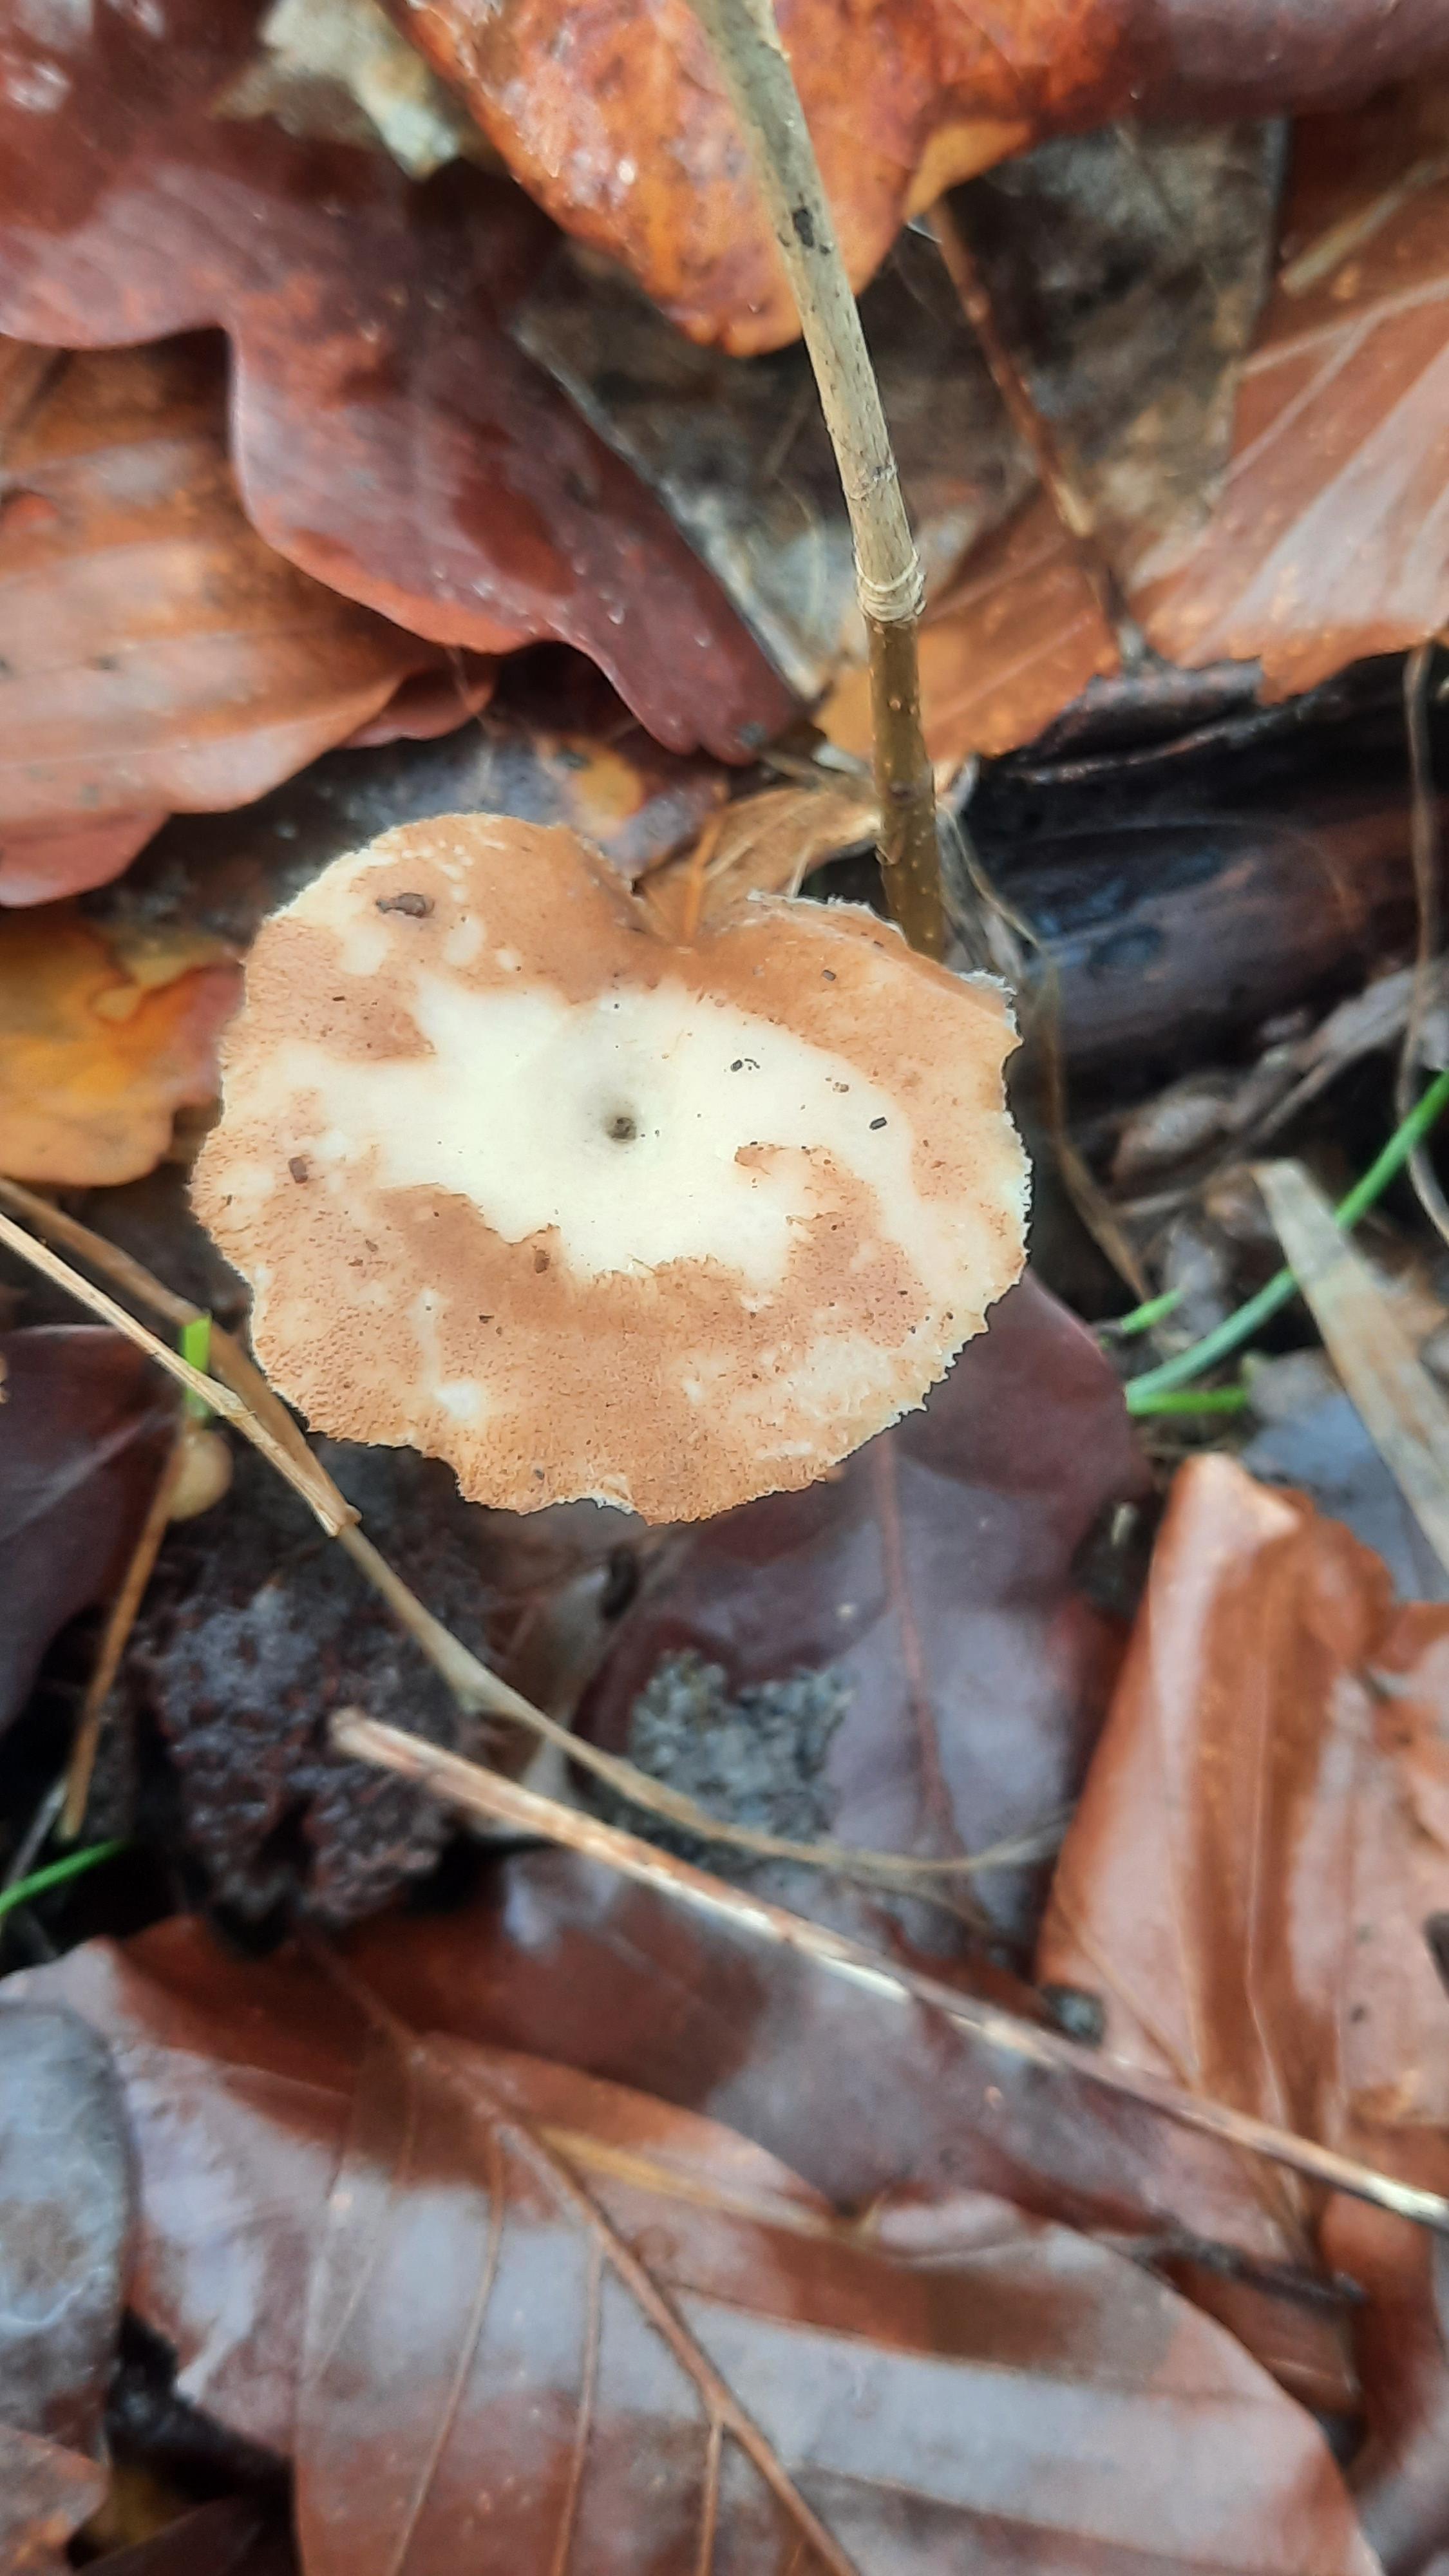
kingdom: Fungi
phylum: Basidiomycota
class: Agaricomycetes
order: Polyporales
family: Polyporaceae
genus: Lentinus
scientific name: Lentinus brumalis
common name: vinter-stilkporesvamp
